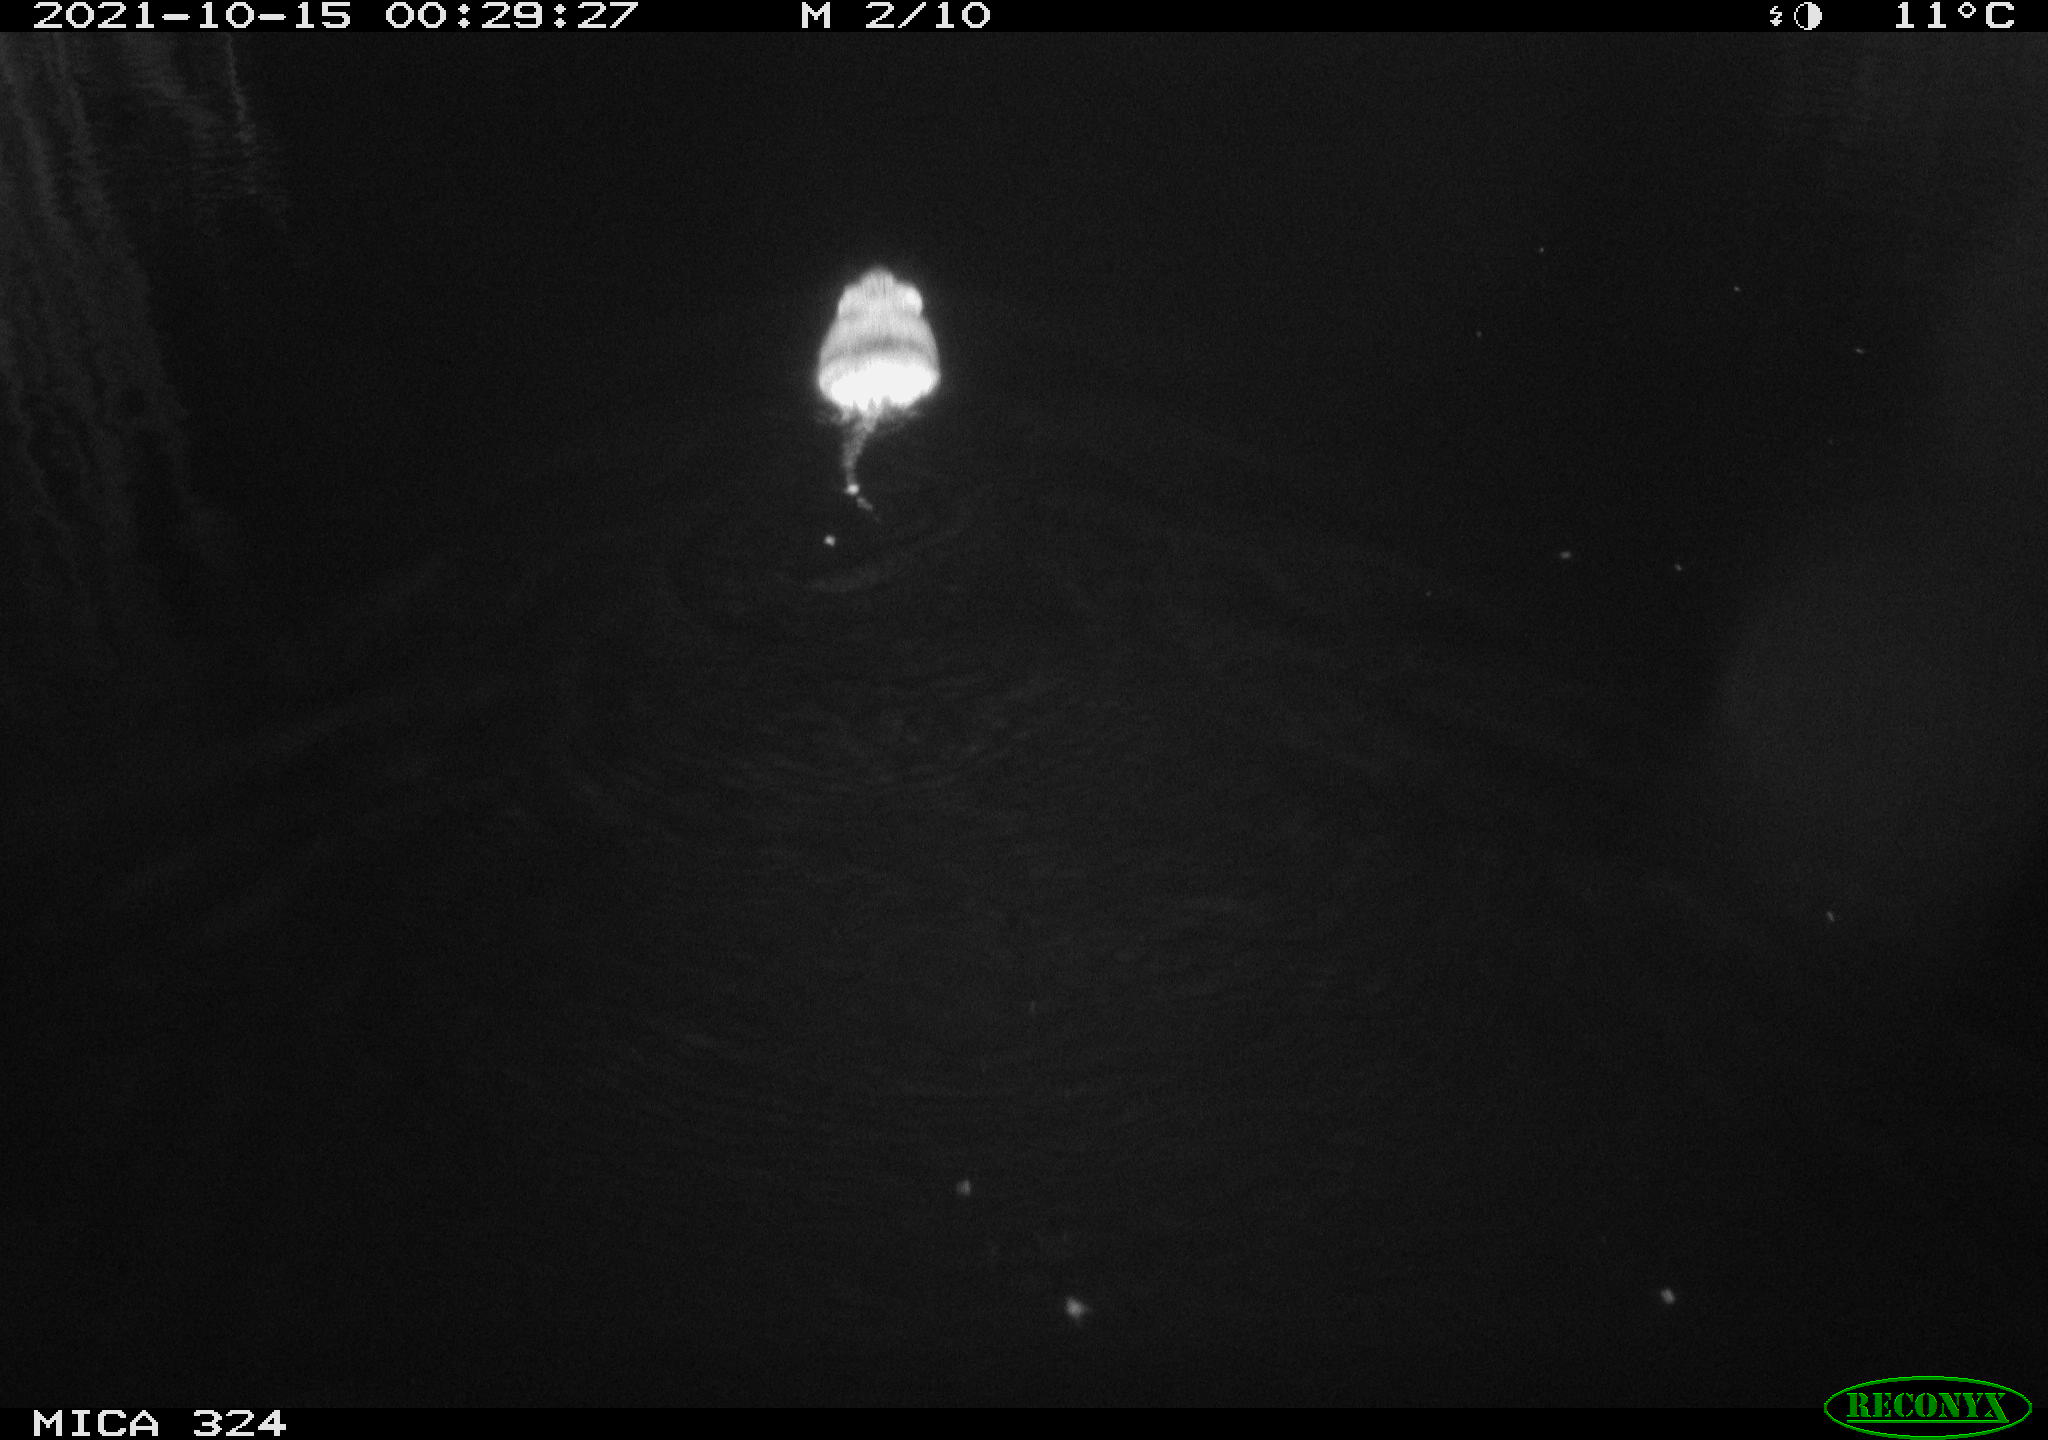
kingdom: Animalia
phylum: Chordata
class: Mammalia
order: Rodentia
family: Cricetidae
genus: Ondatra
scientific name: Ondatra zibethicus
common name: Muskrat
